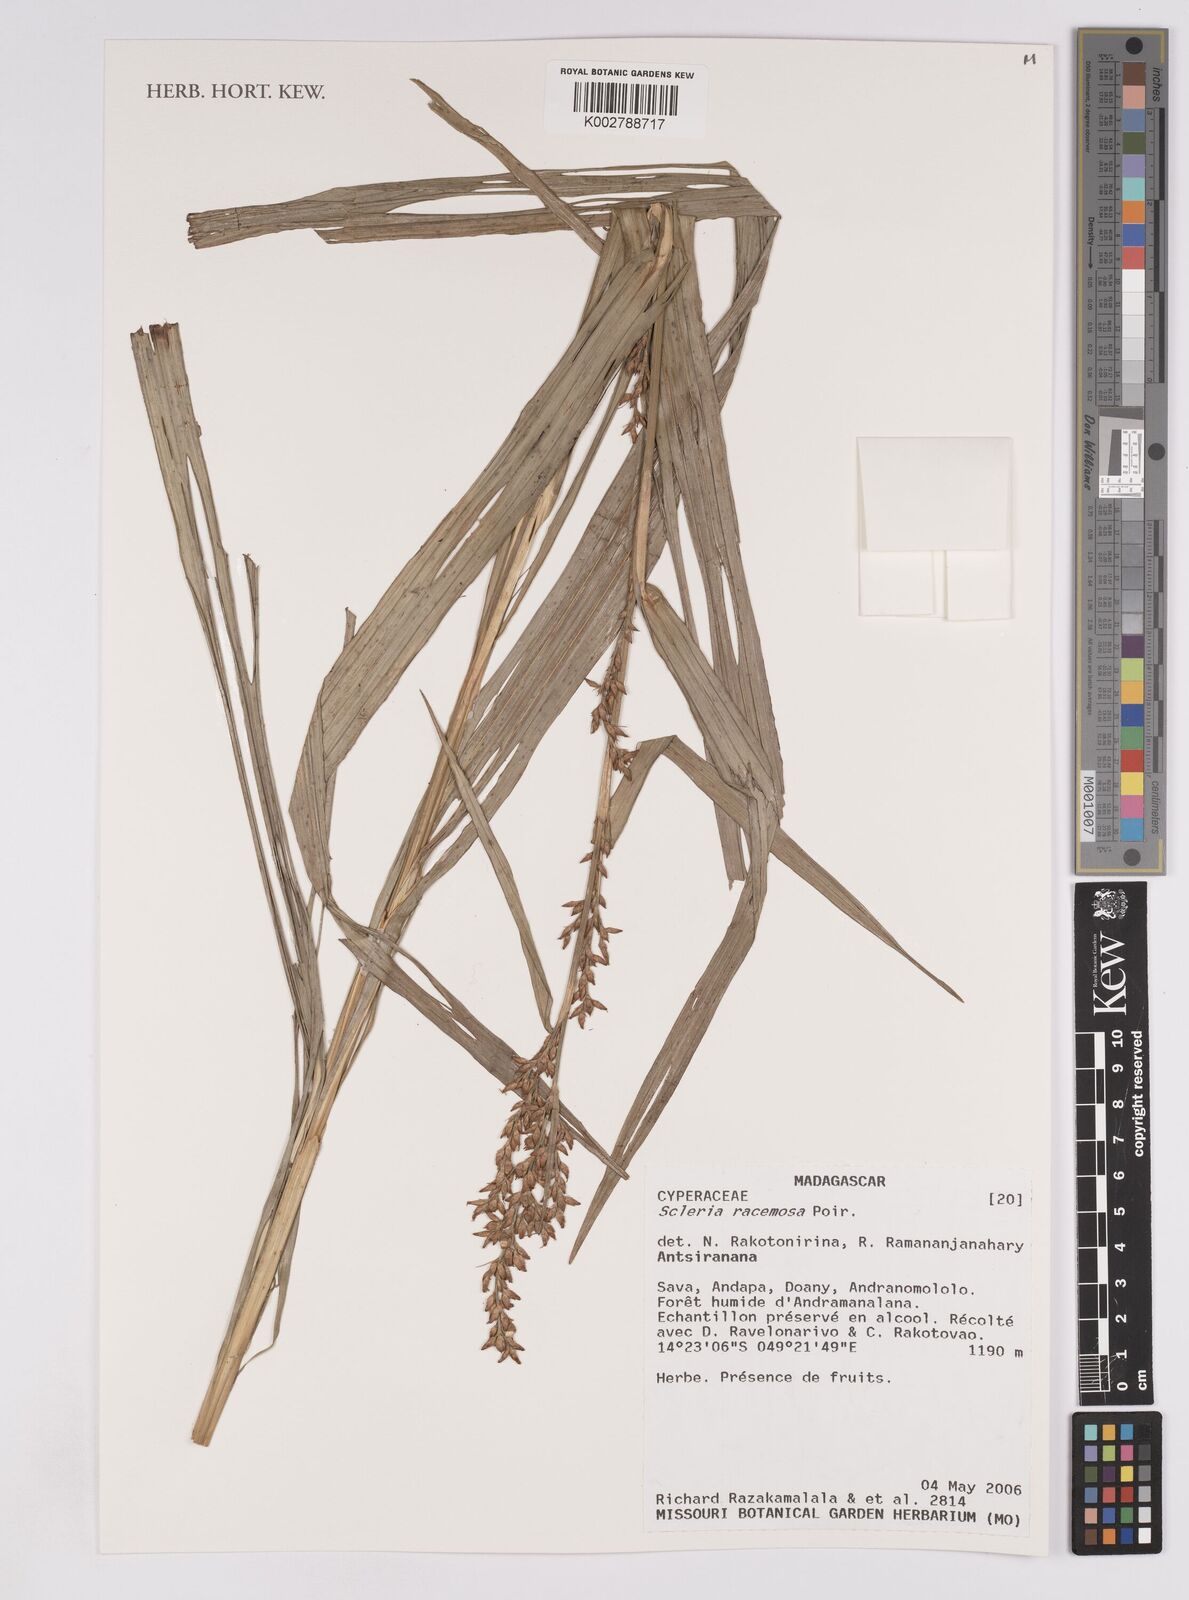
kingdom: Plantae
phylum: Tracheophyta
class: Liliopsida
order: Poales
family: Cyperaceae
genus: Scleria
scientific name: Scleria racemosa
